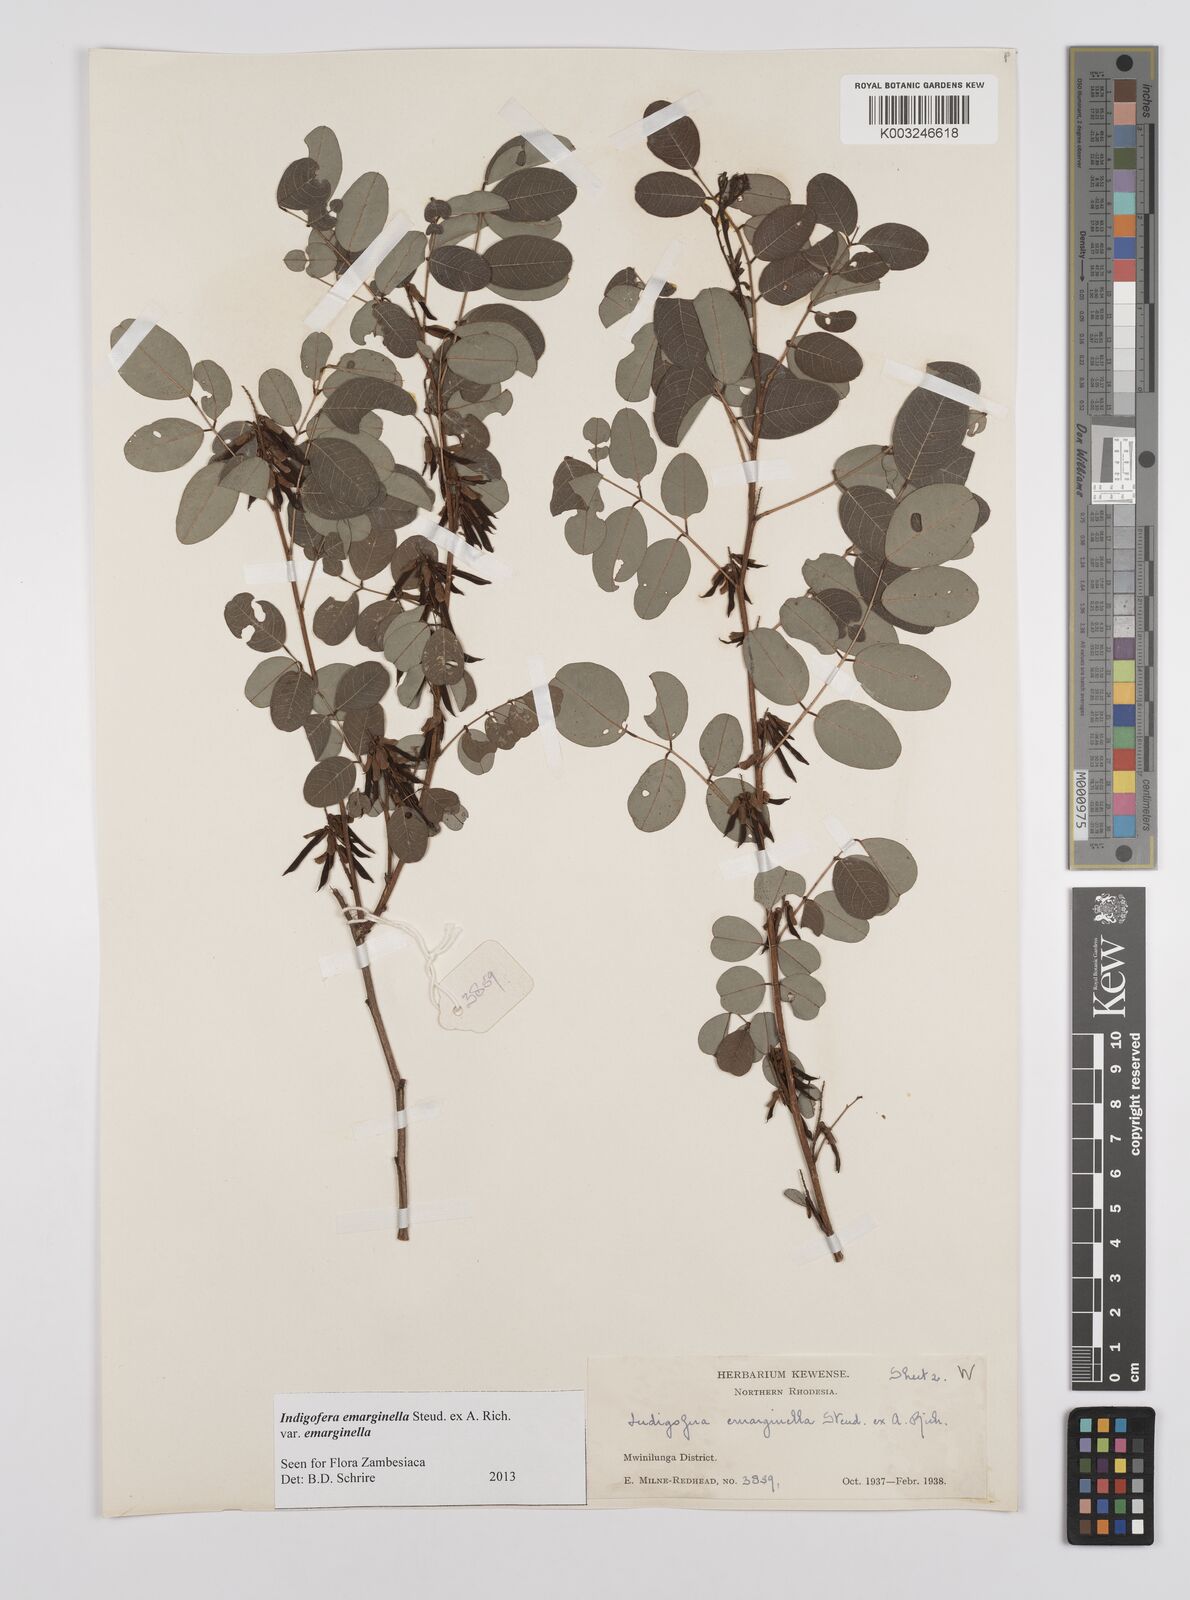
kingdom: Plantae
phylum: Tracheophyta
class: Magnoliopsida
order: Fabales
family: Fabaceae
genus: Indigofera
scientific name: Indigofera emarginella
